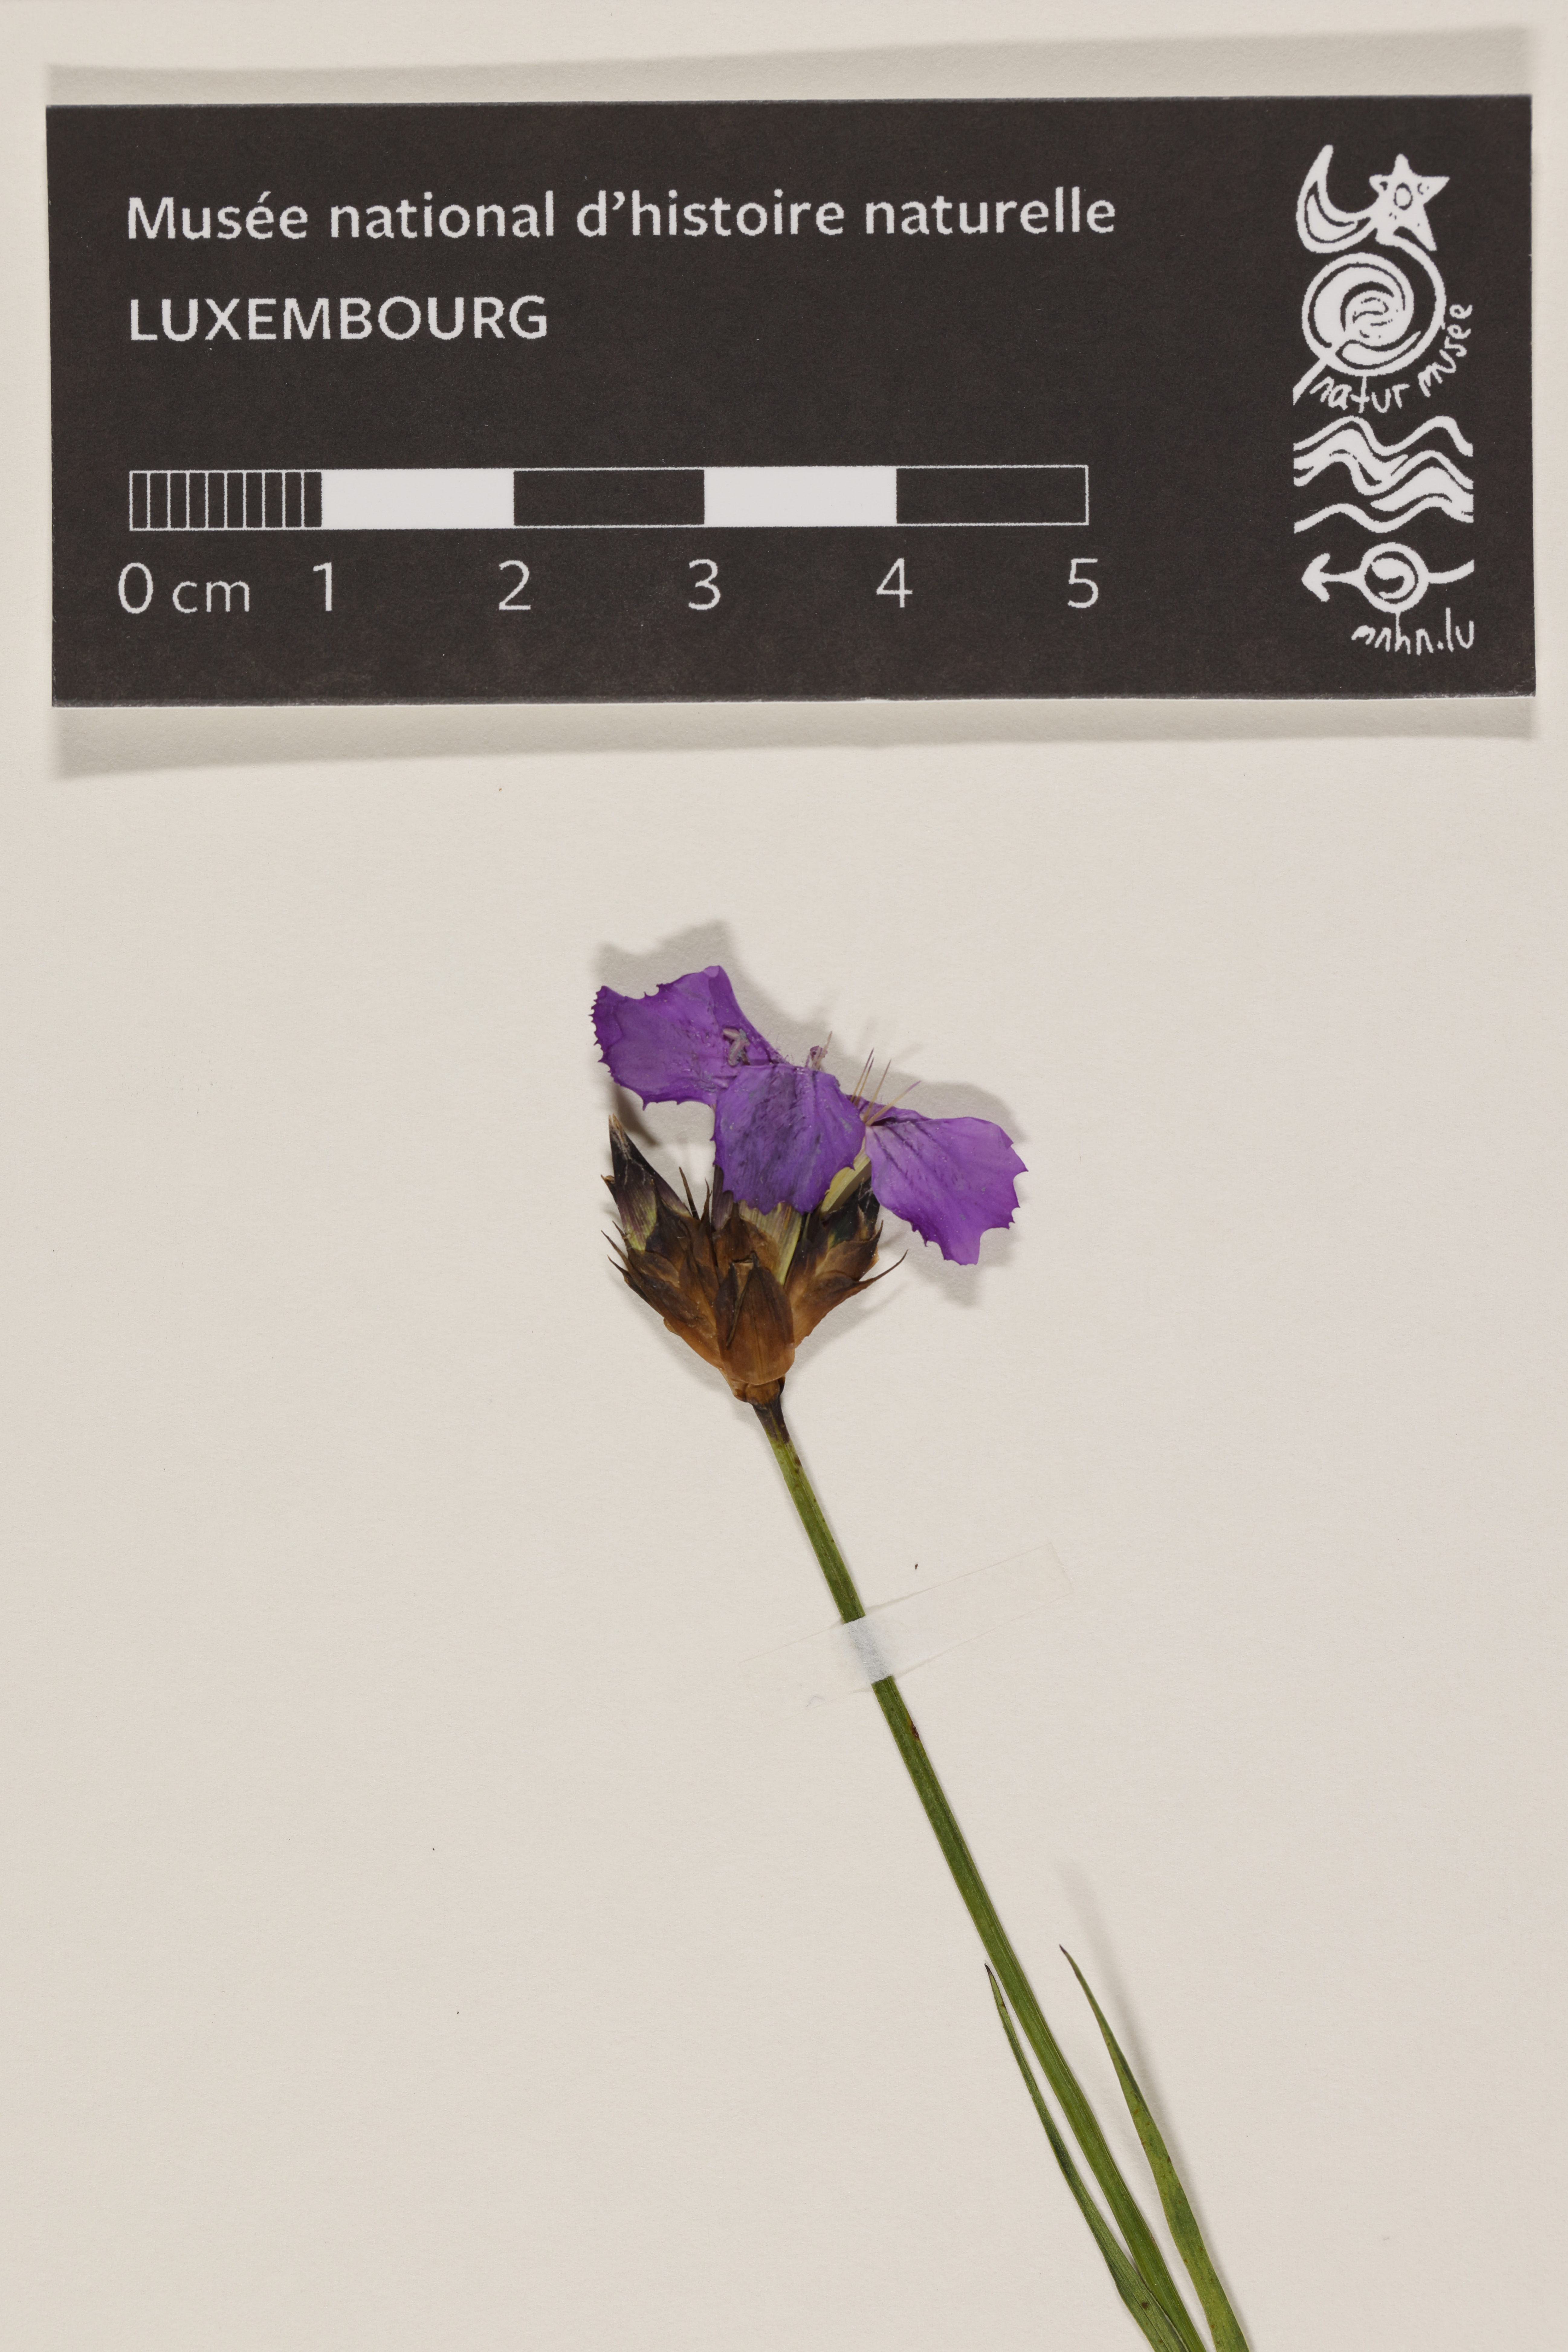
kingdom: Plantae
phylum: Tracheophyta
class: Magnoliopsida
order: Caryophyllales
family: Caryophyllaceae
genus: Dianthus
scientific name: Dianthus carthusianorum
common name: Carthusian pink
